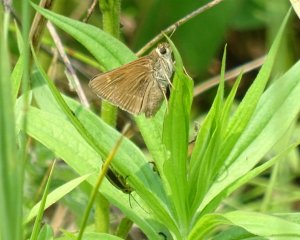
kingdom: Animalia
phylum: Arthropoda
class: Insecta
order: Lepidoptera
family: Hesperiidae
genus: Polites
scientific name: Polites
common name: Crossline Skipper
